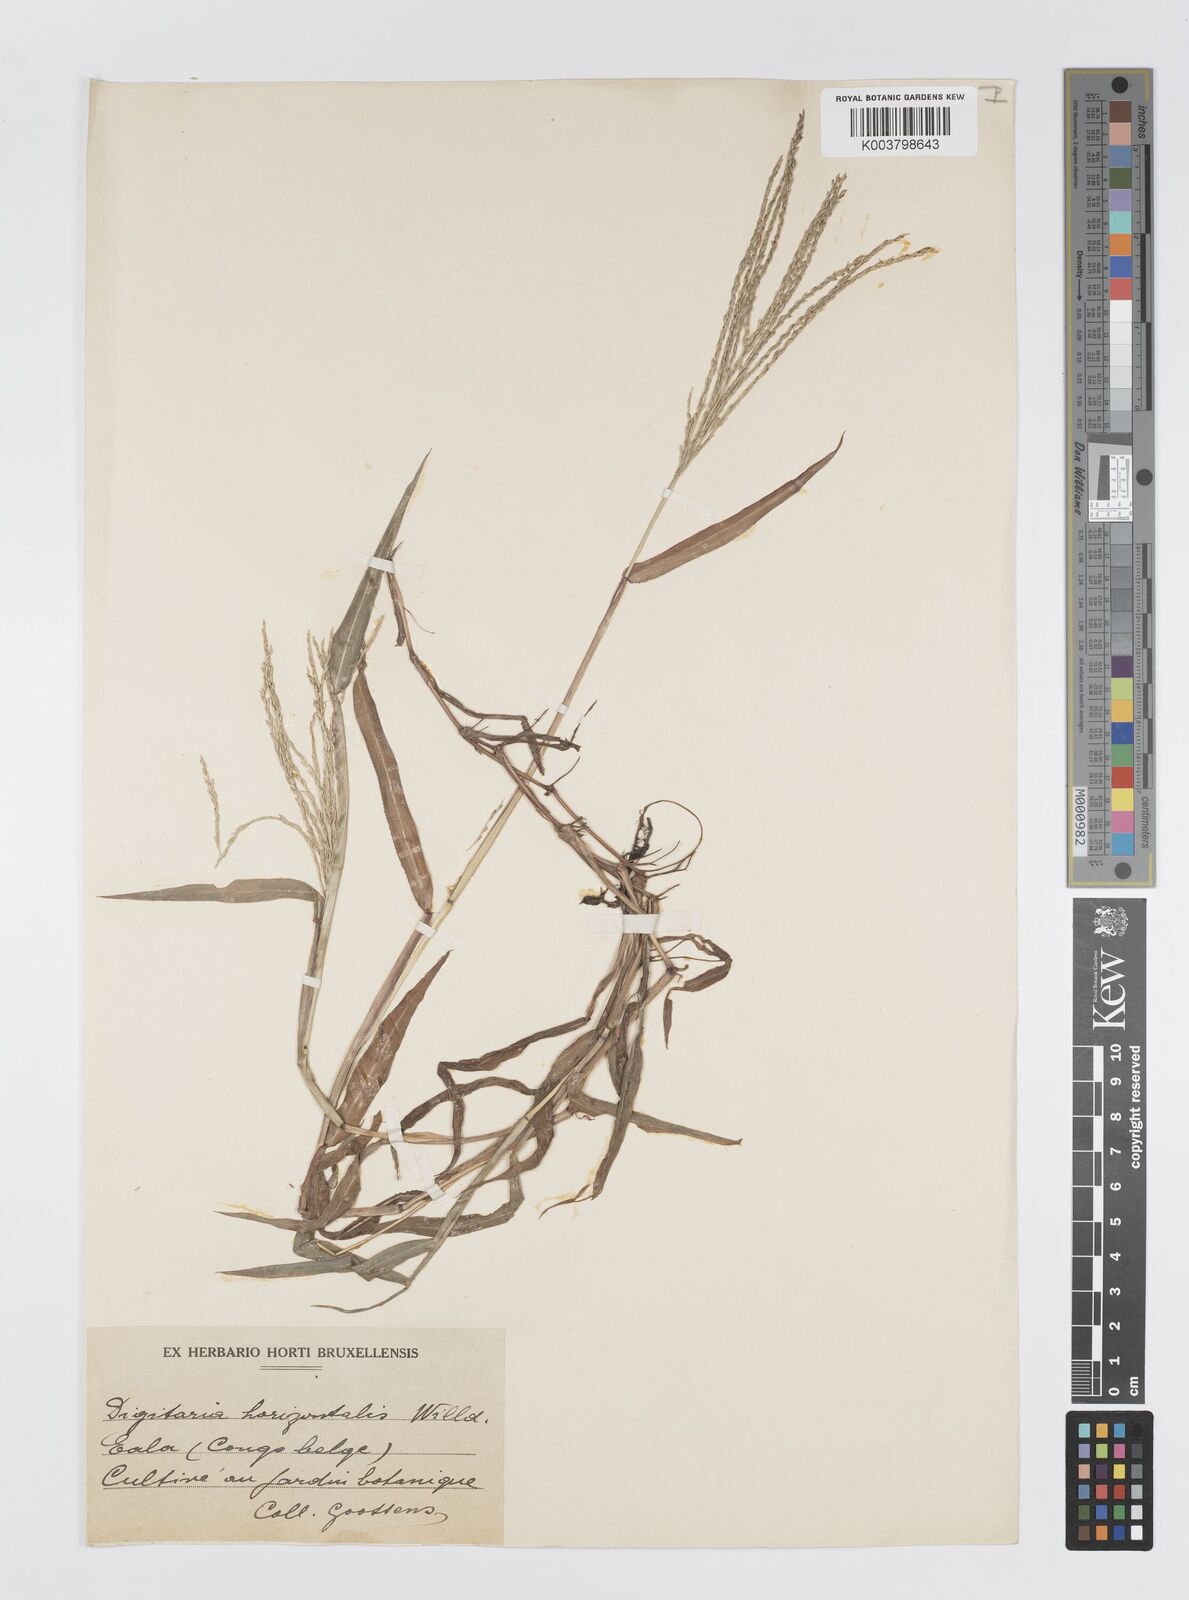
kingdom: Plantae
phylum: Tracheophyta
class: Liliopsida
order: Poales
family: Poaceae
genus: Digitaria
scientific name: Digitaria horizontalis
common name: Jamaican crabgrass
